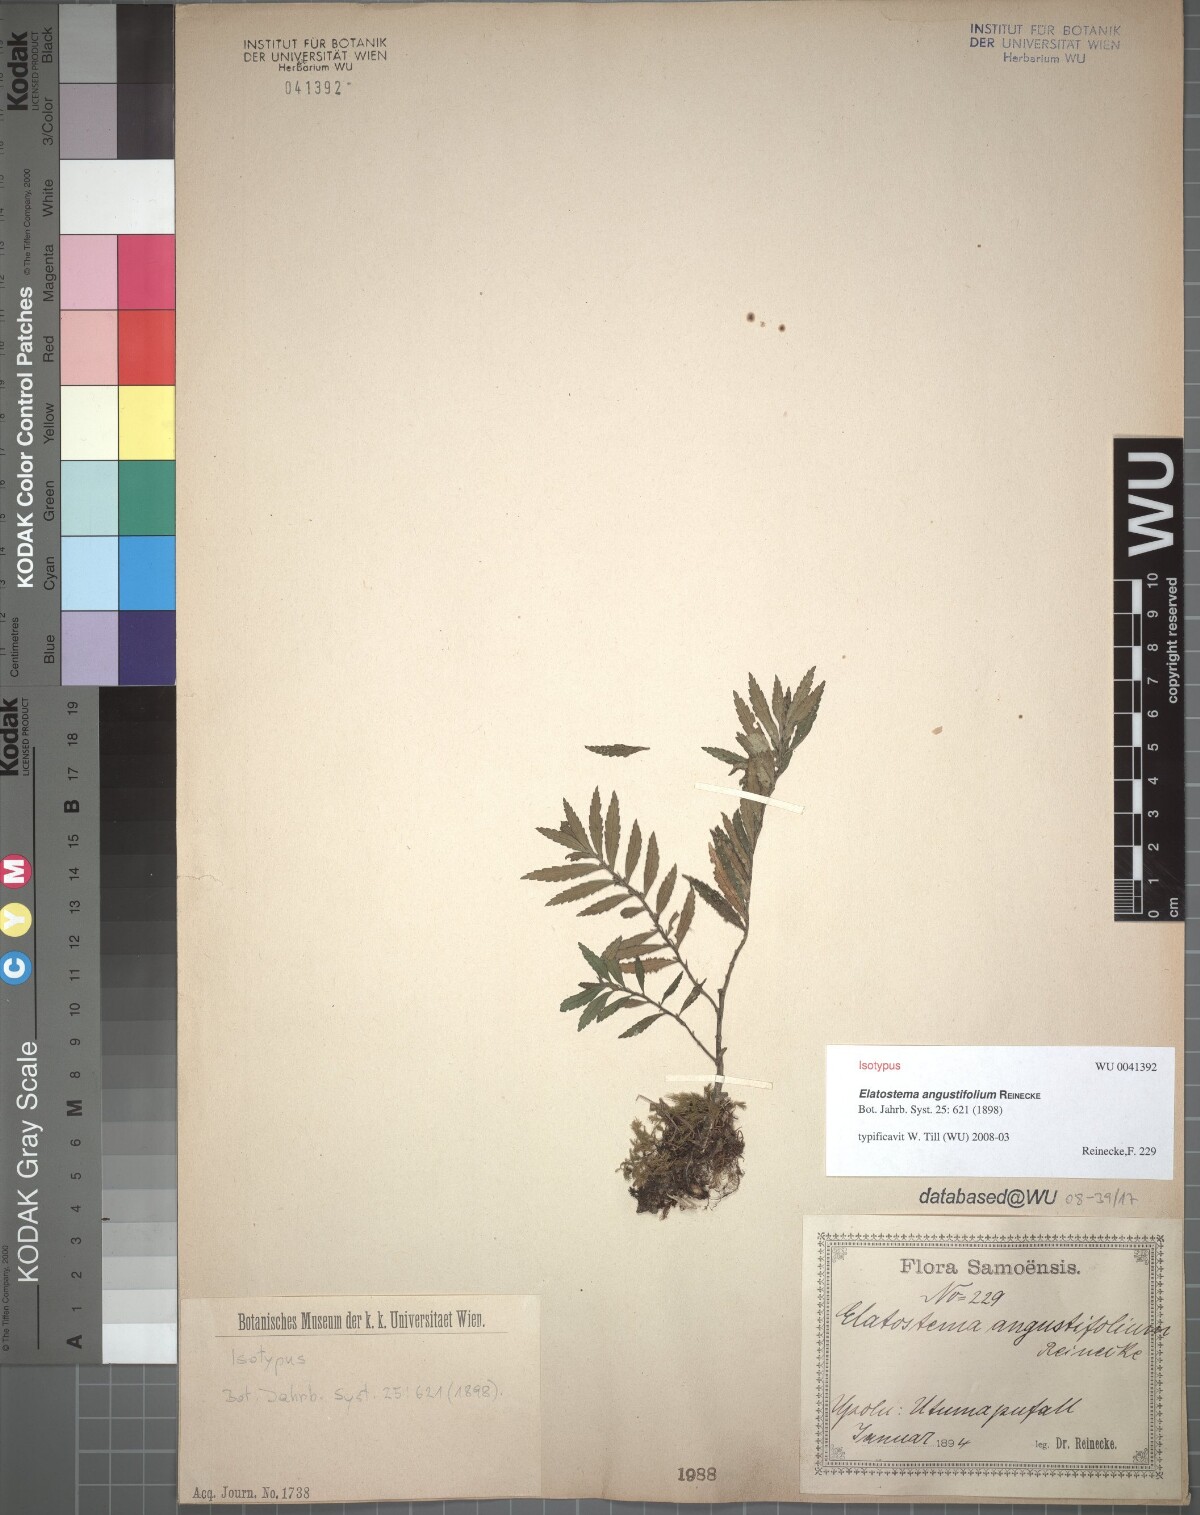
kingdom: Plantae
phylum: Tracheophyta
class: Magnoliopsida
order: Rosales
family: Urticaceae
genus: Elatostema
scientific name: Elatostema angustifolium
